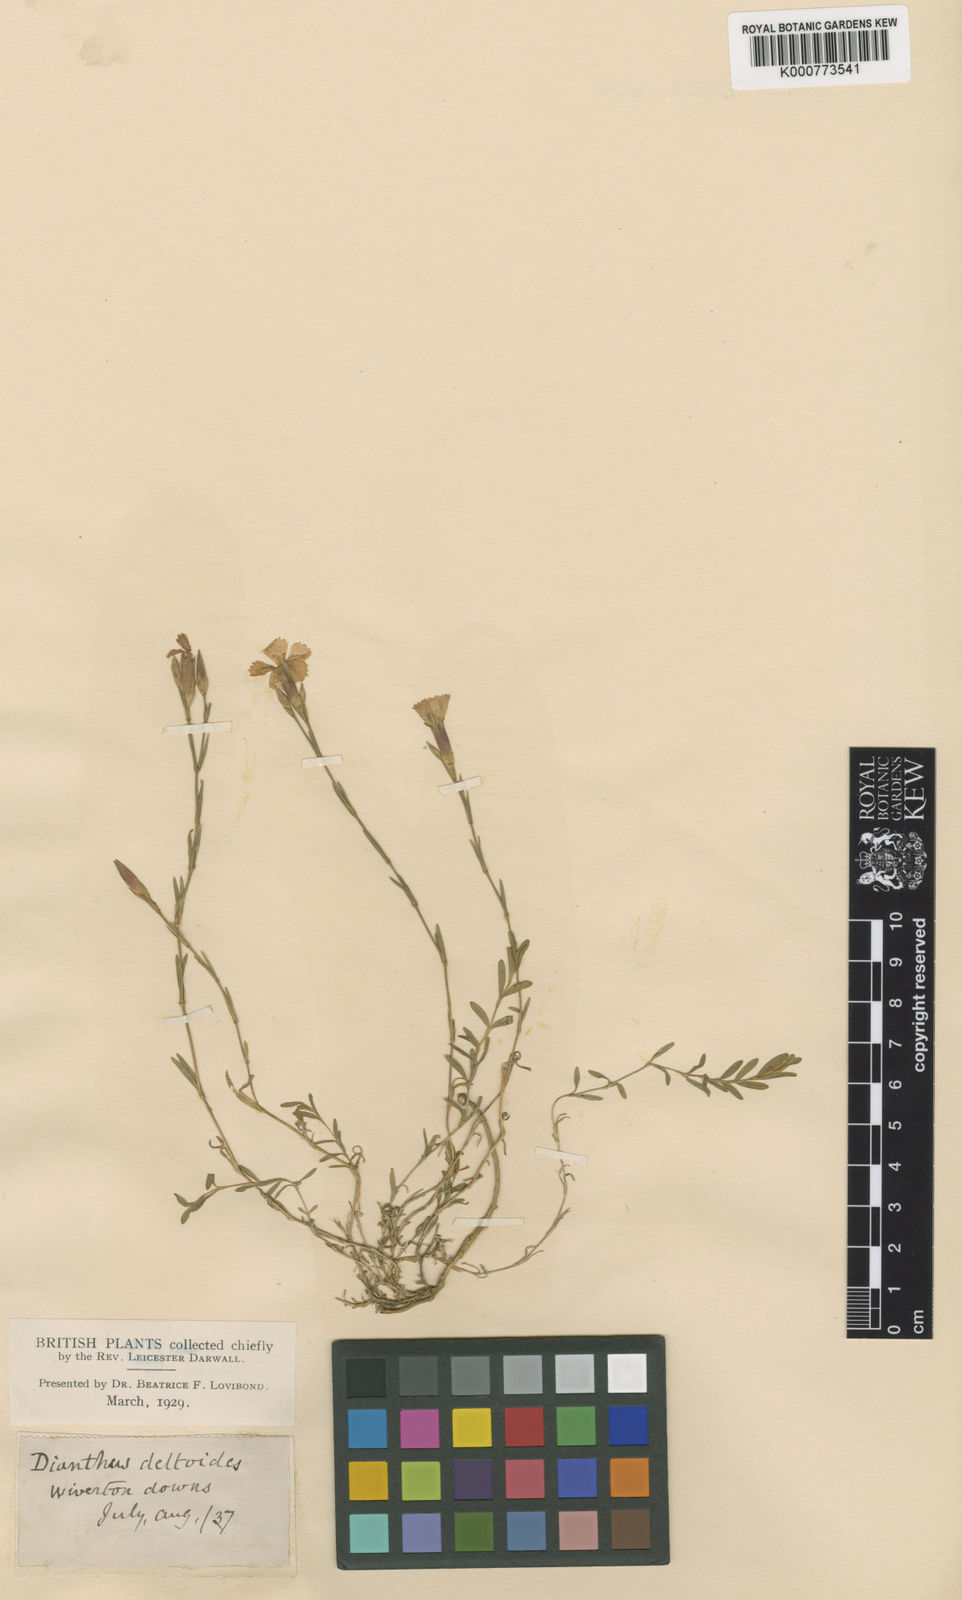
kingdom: Plantae
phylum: Tracheophyta
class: Magnoliopsida
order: Caryophyllales
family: Caryophyllaceae
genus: Dianthus
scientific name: Dianthus deltoides
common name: Maiden pink
